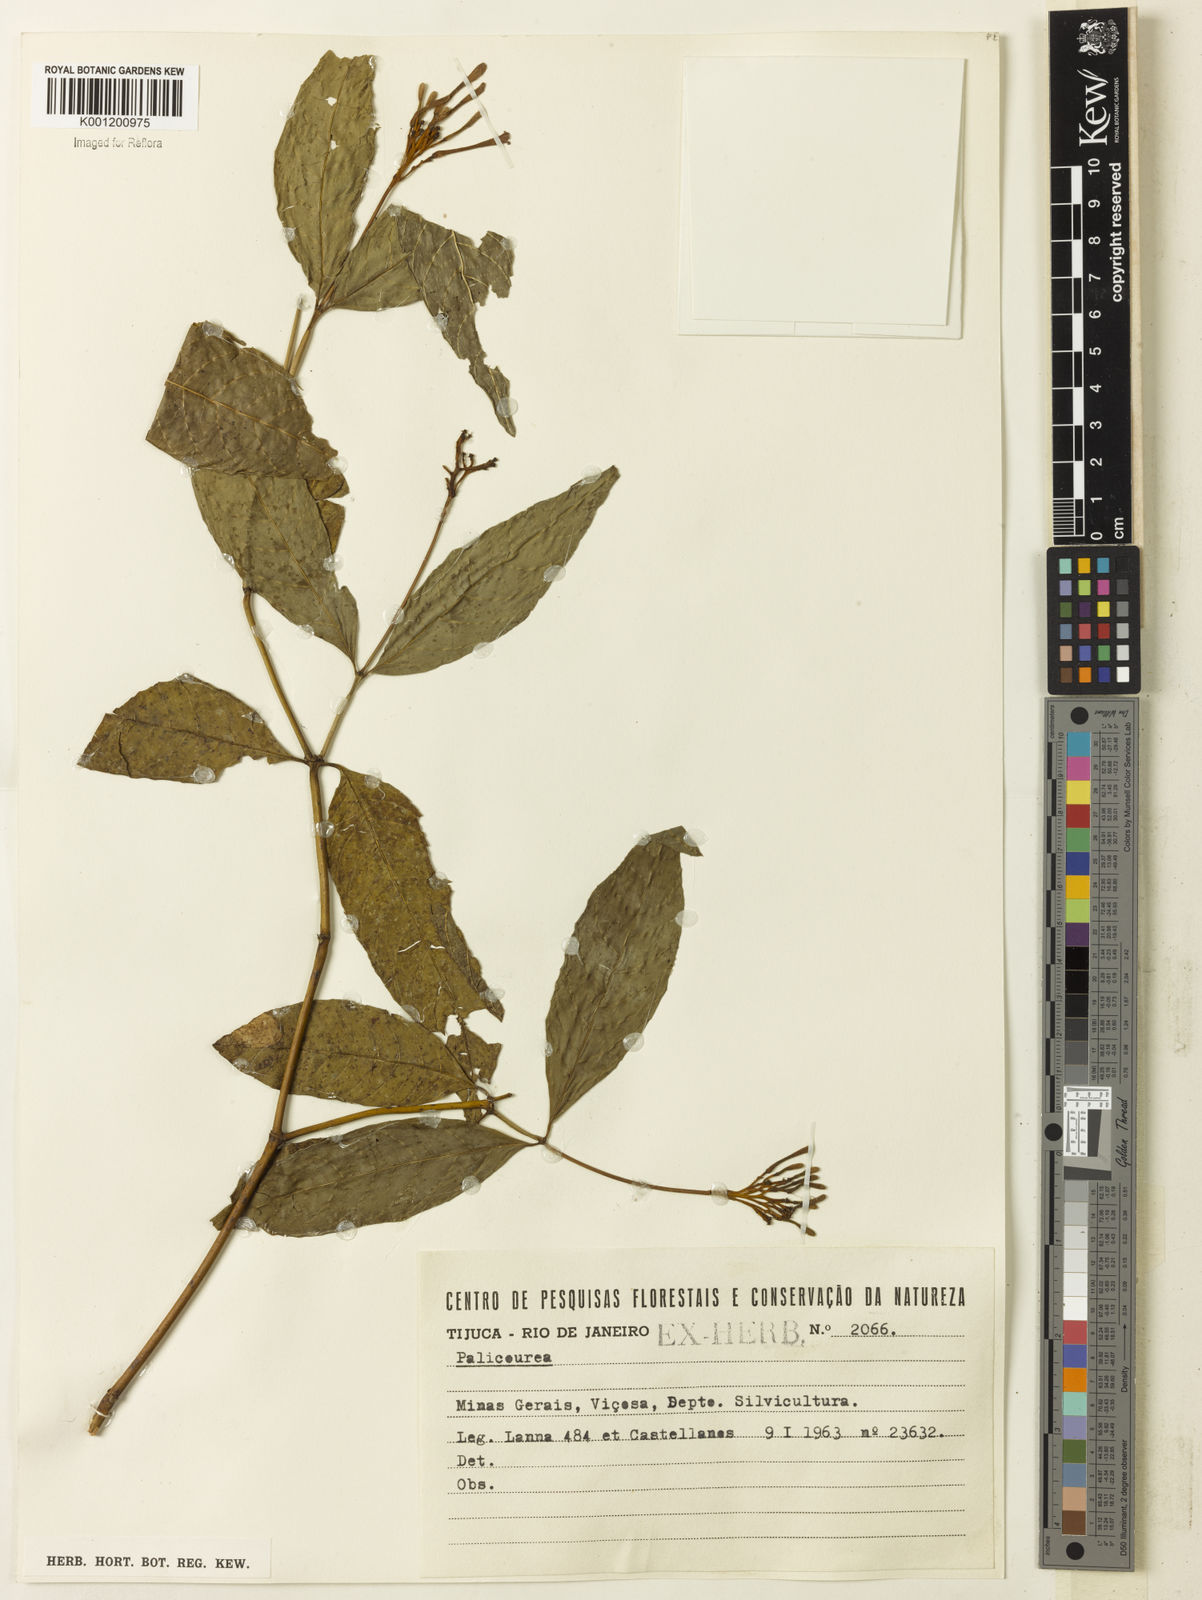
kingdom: Plantae
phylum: Tracheophyta
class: Magnoliopsida
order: Gentianales
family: Rubiaceae
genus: Palicourea
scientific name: Palicourea marcgravii
